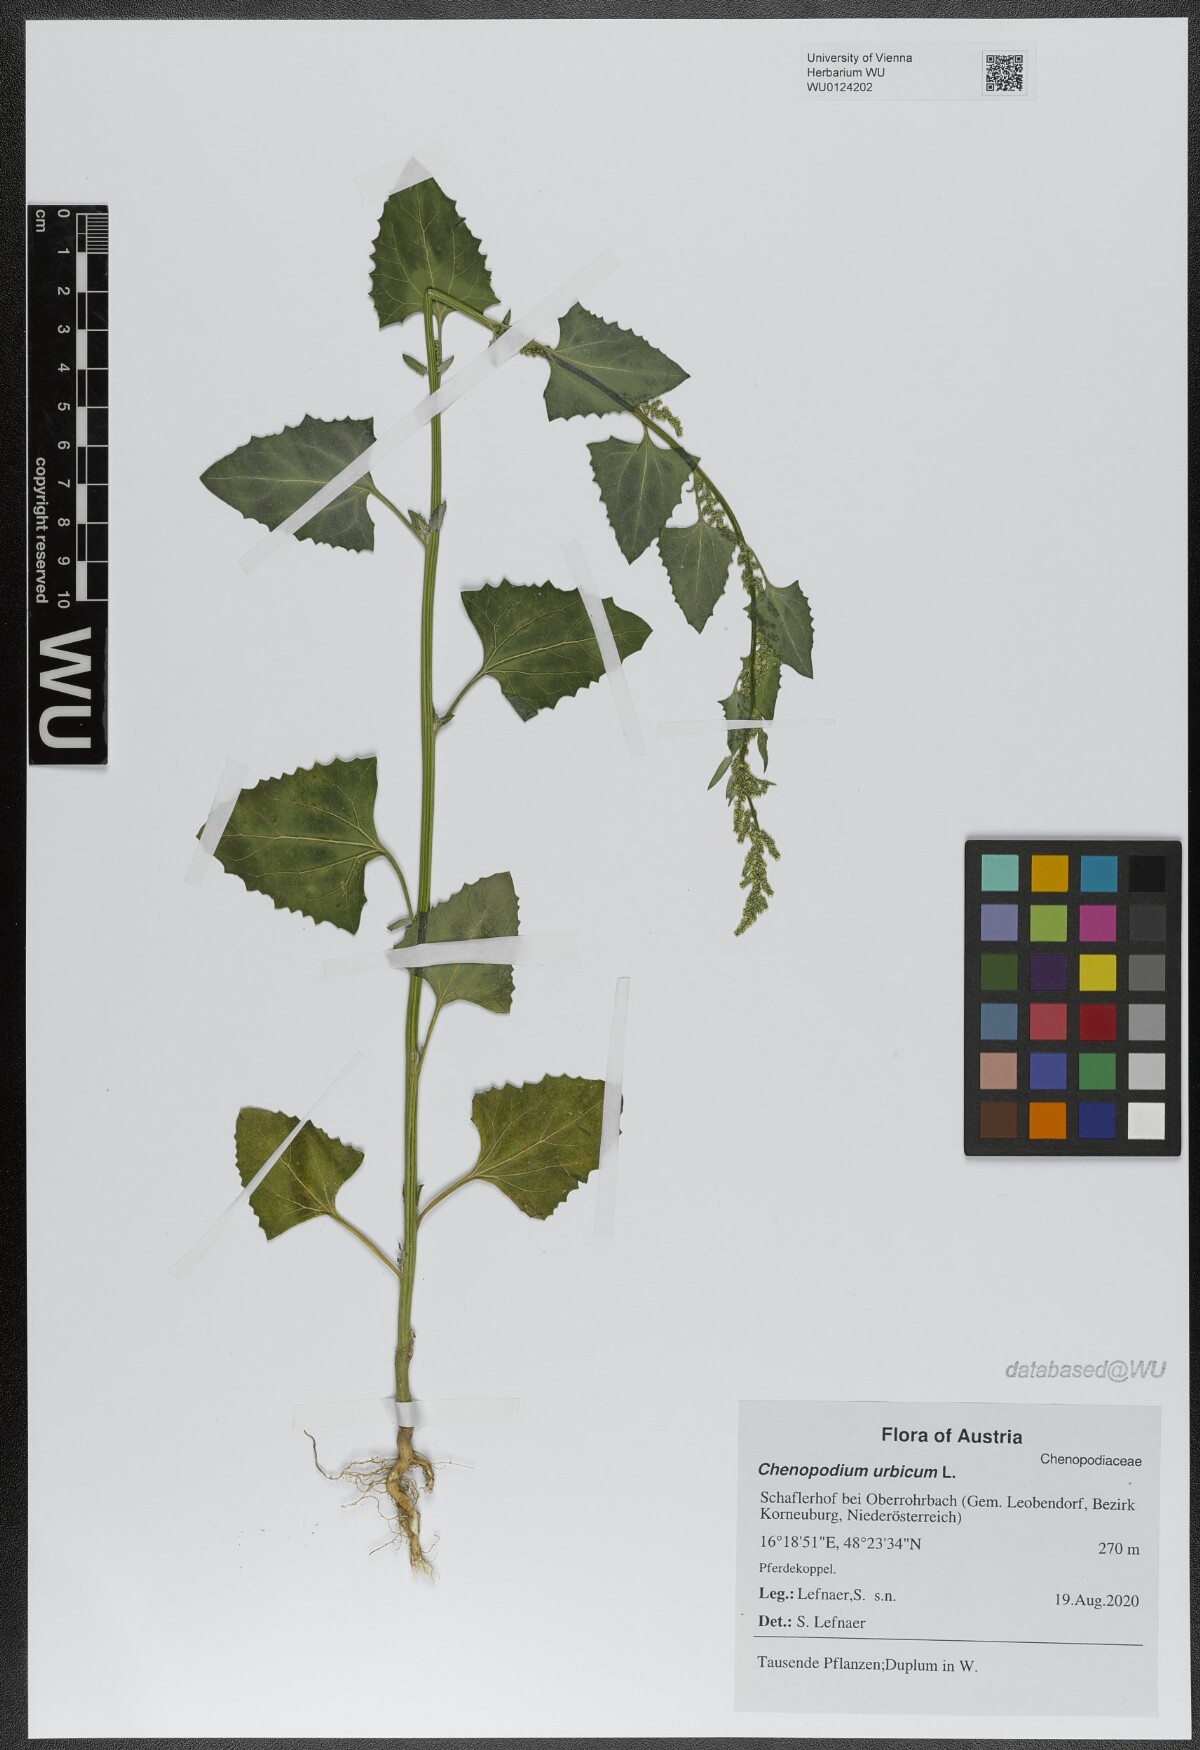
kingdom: Plantae
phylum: Tracheophyta
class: Magnoliopsida
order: Caryophyllales
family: Amaranthaceae
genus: Oxybasis
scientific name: Oxybasis urbica
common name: City goosefoot
